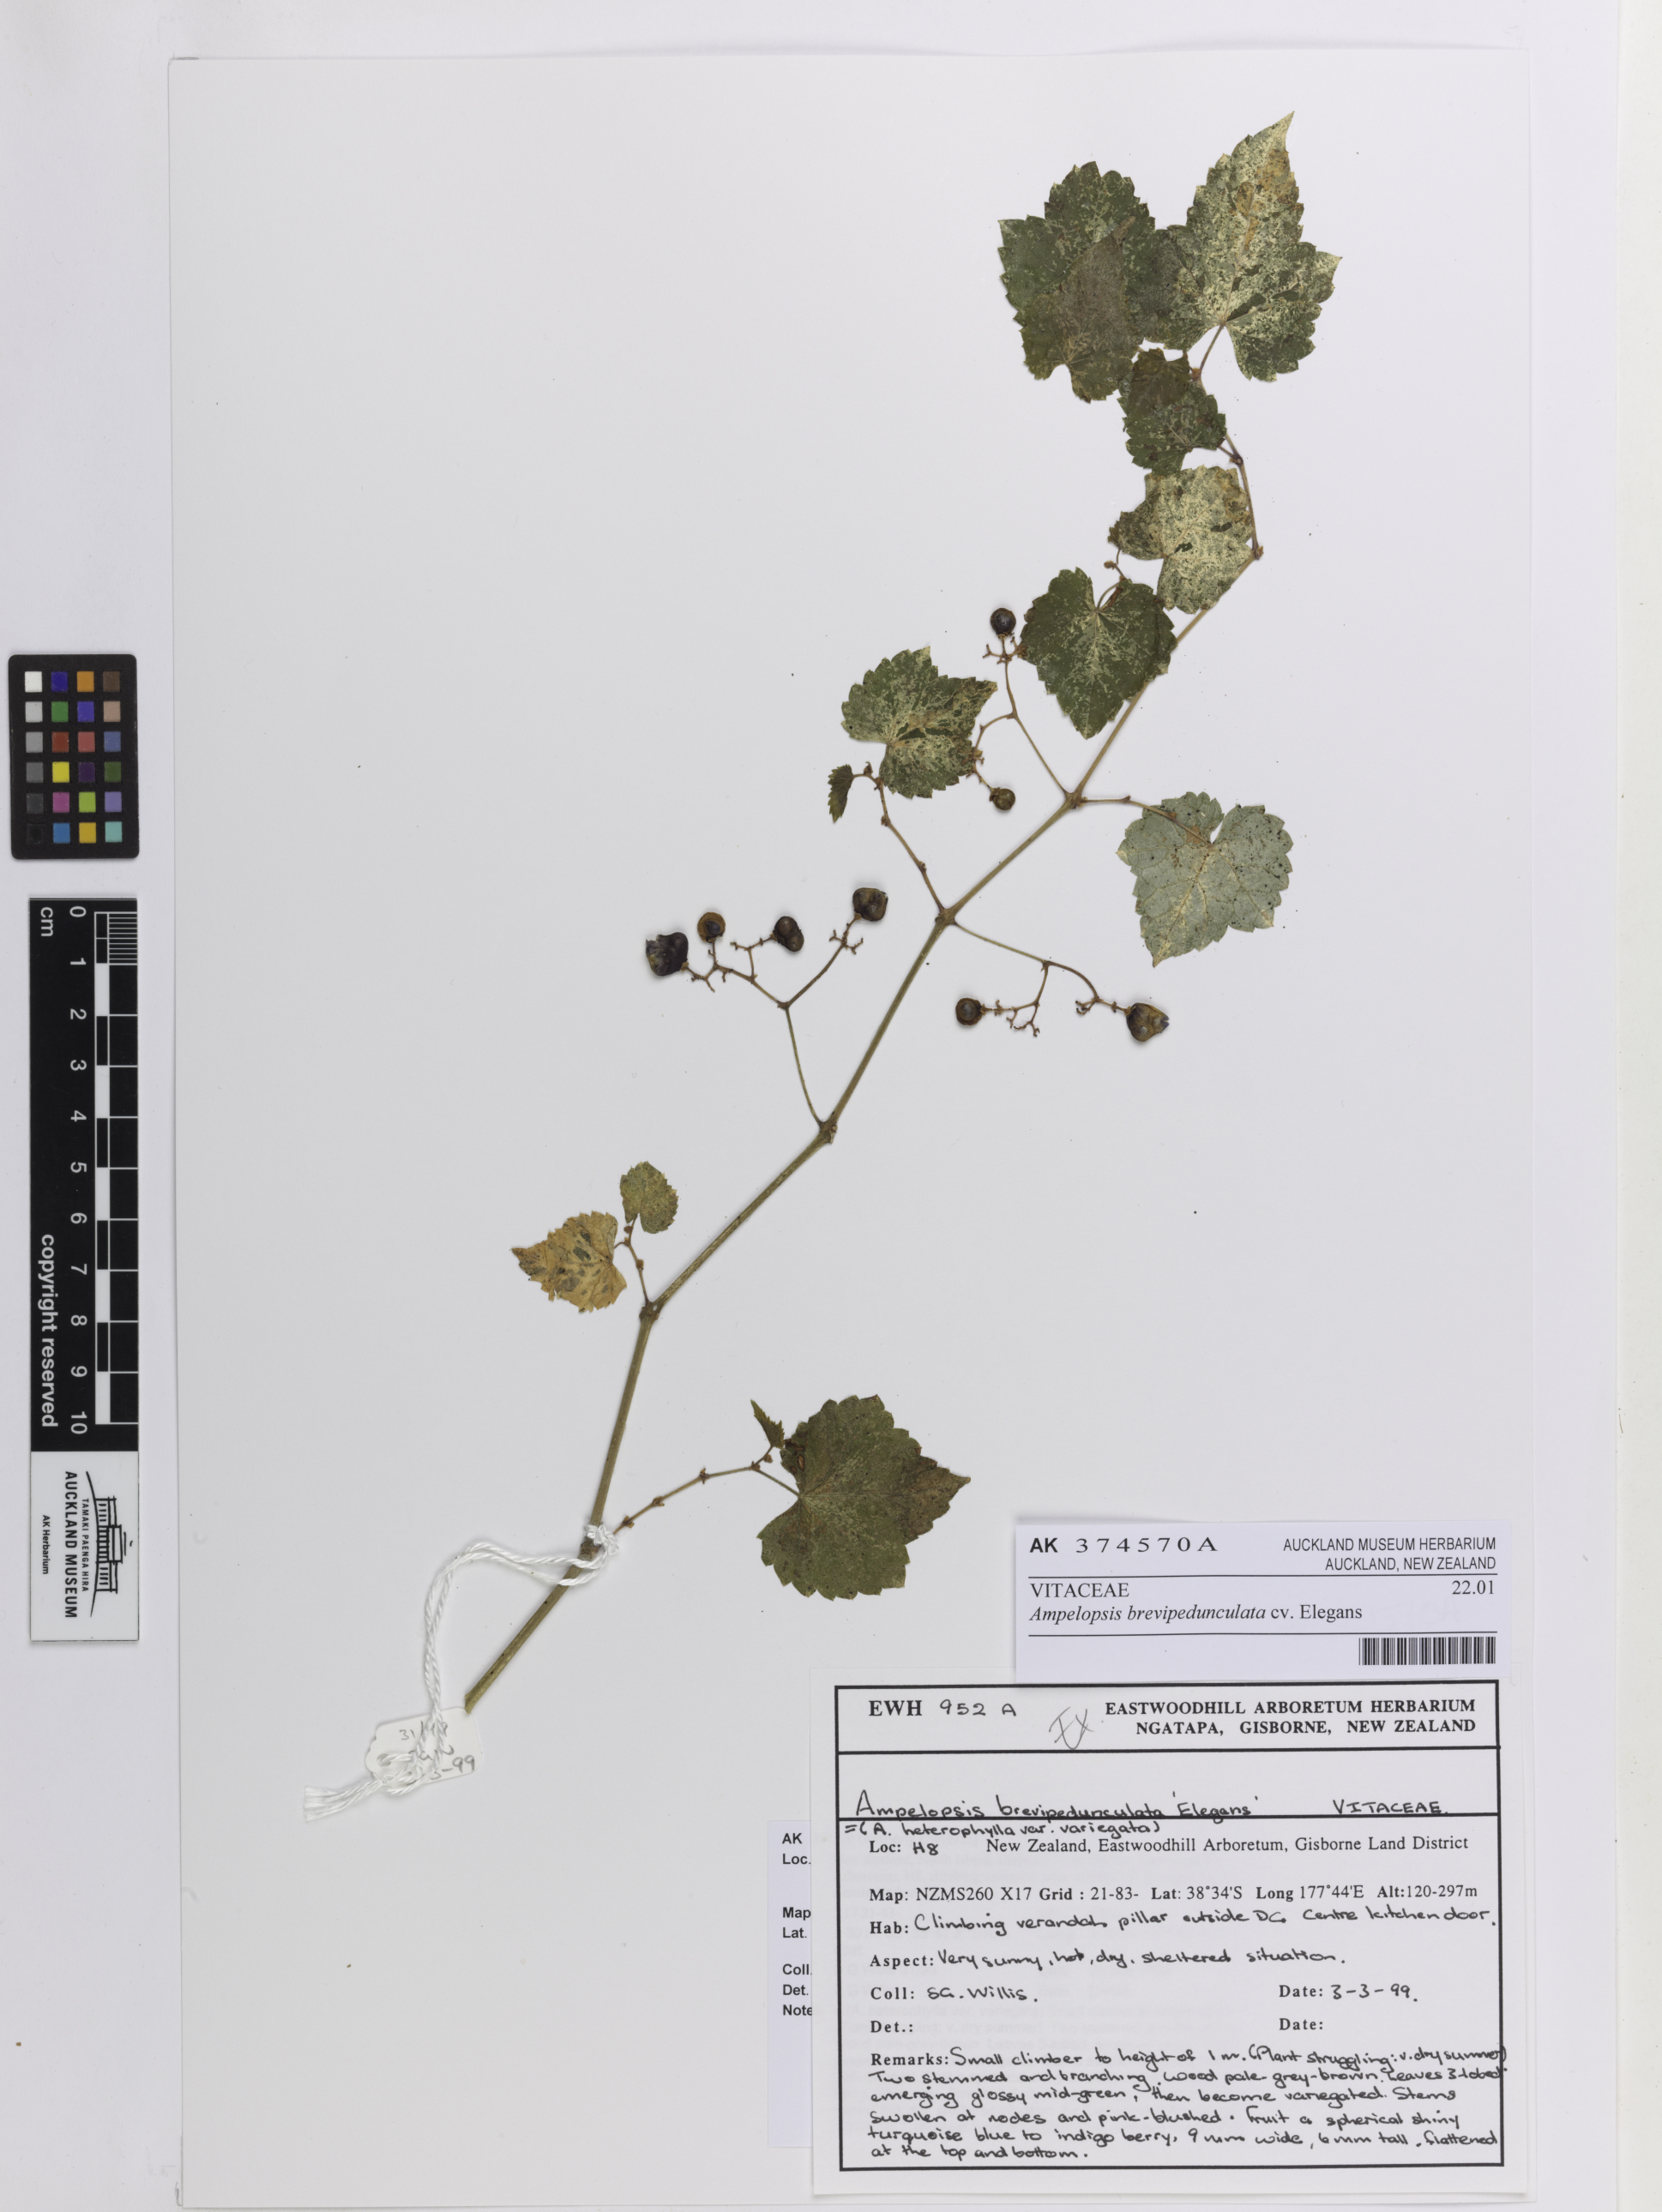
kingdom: Plantae
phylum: Tracheophyta
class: Magnoliopsida
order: Vitales
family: Vitaceae
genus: Ampelopsis
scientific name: Ampelopsis brevipedunculata
